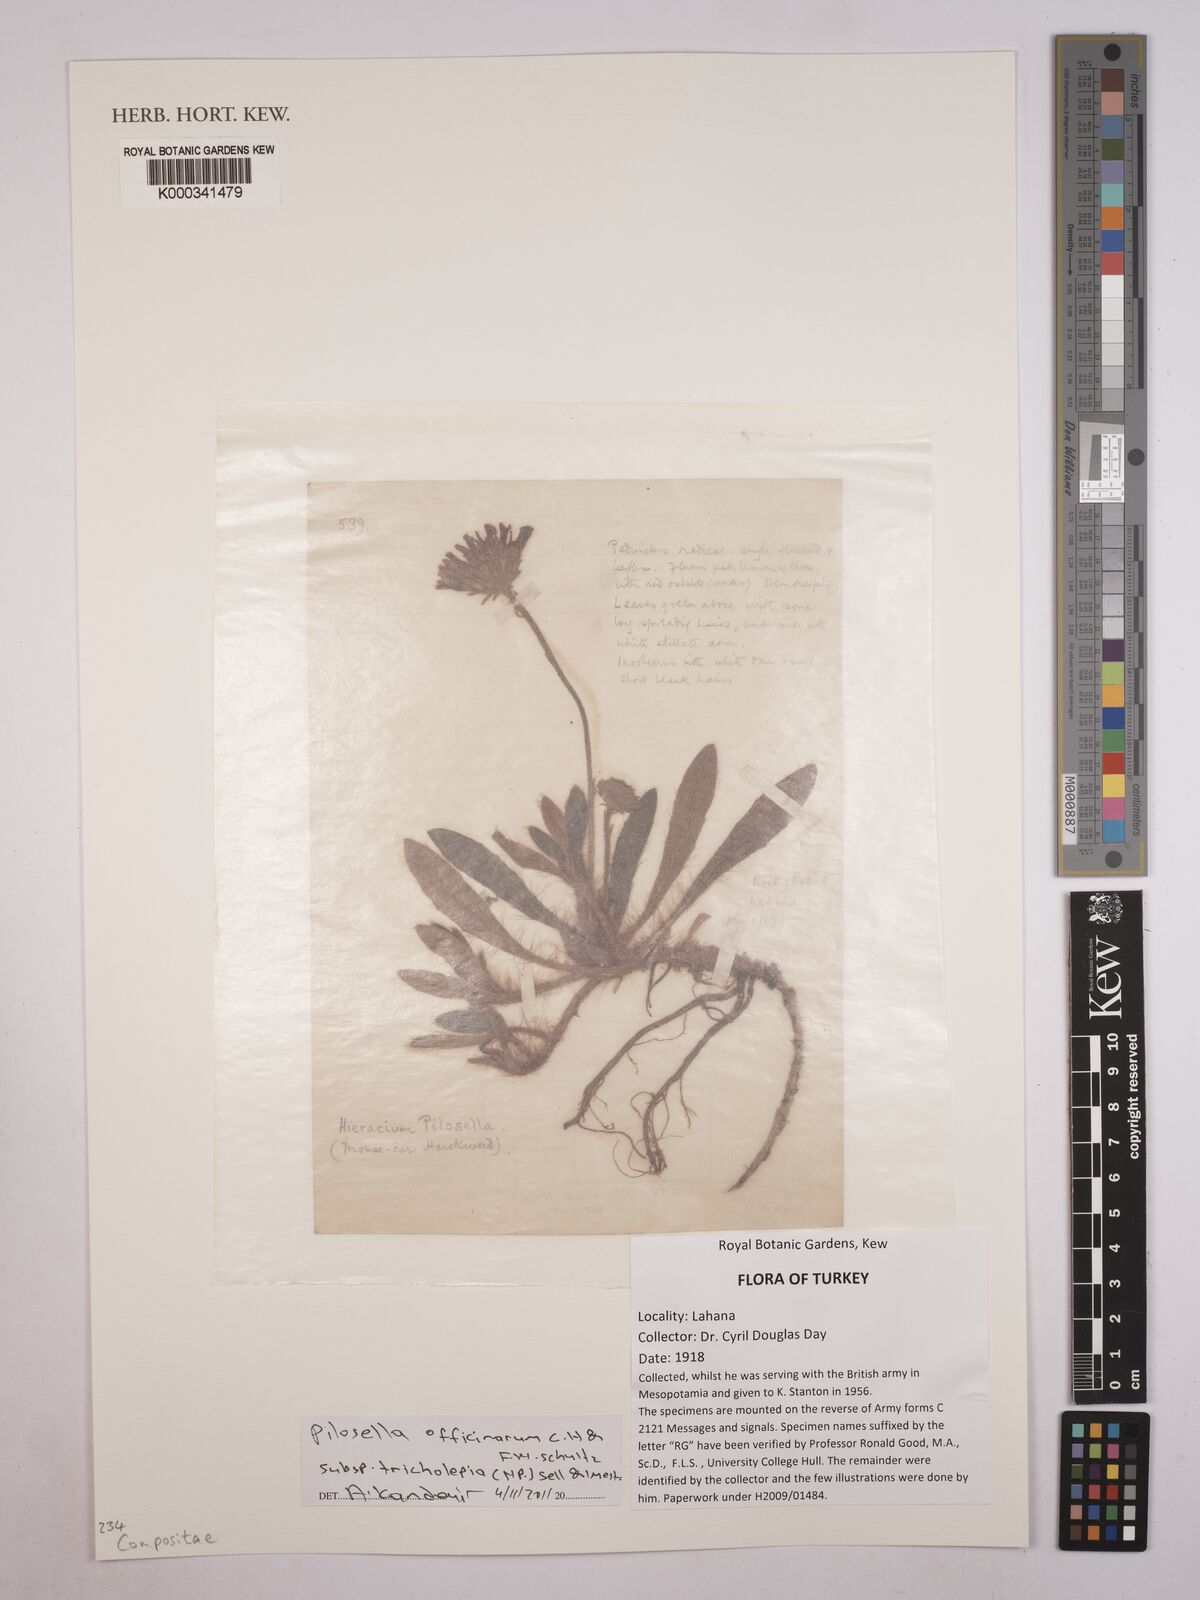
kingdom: Plantae
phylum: Tracheophyta
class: Magnoliopsida
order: Asterales
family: Asteraceae
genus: Pilosella
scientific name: Pilosella tricholepia
